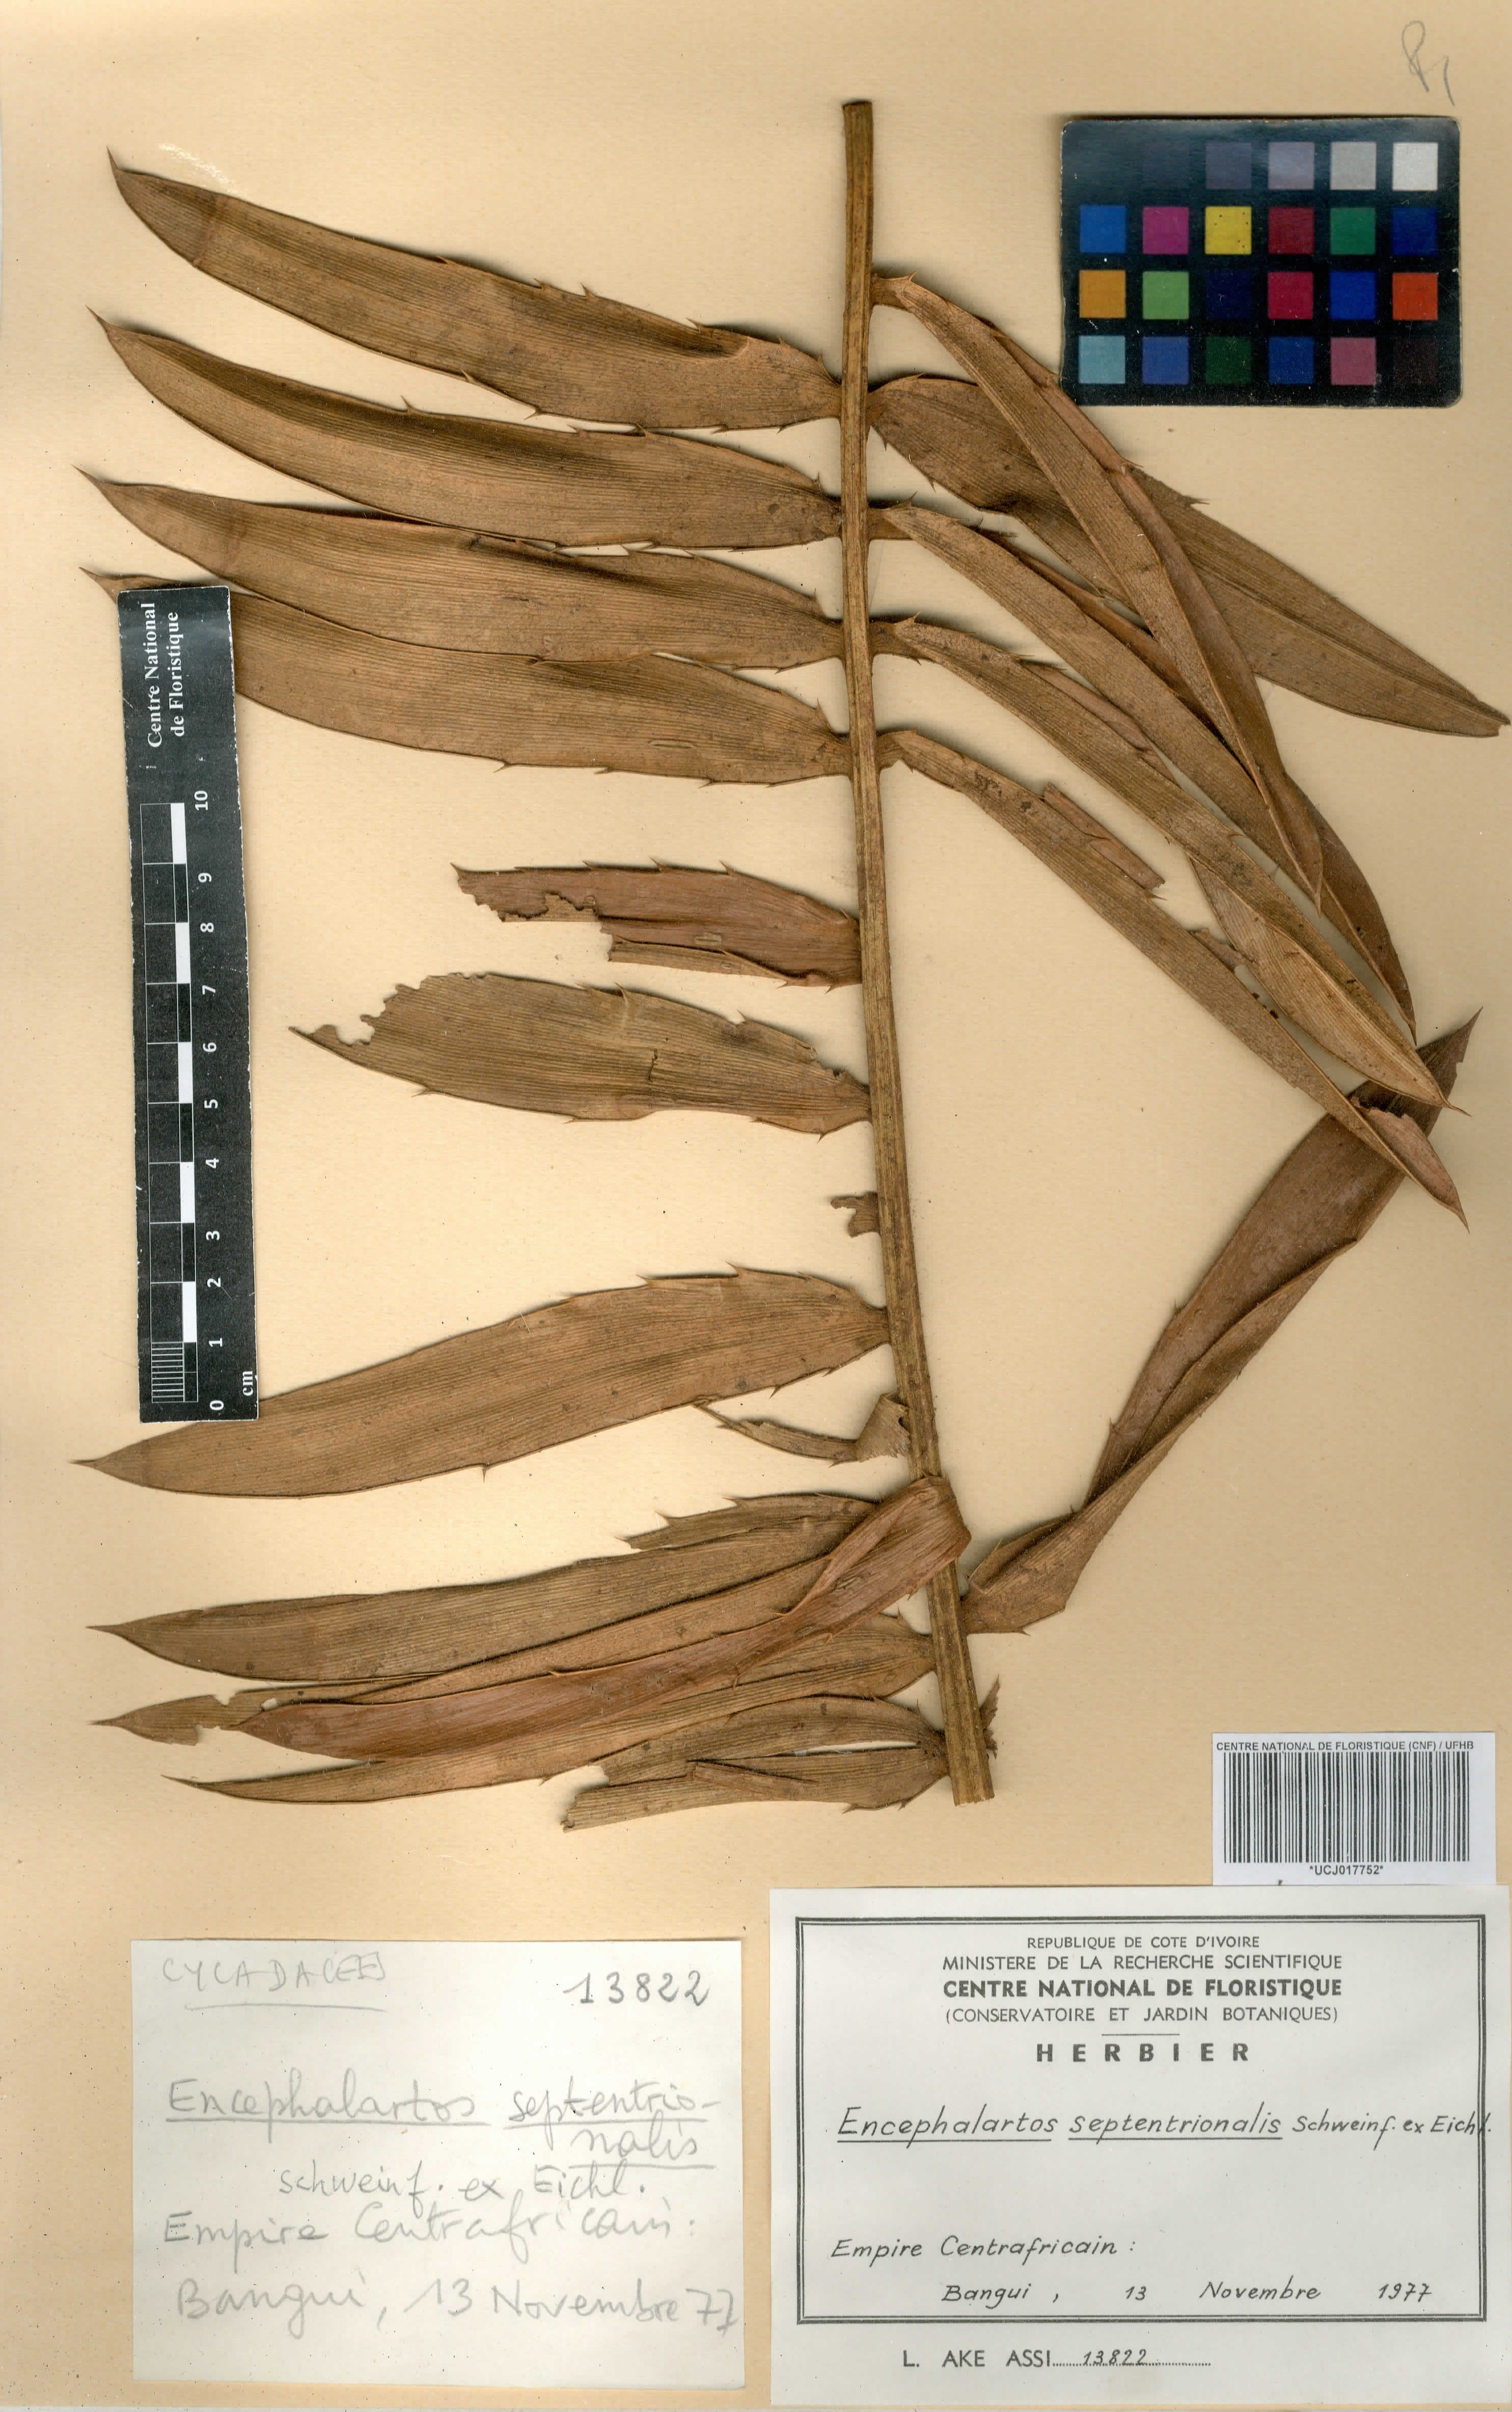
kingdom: Plantae
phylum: Tracheophyta
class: Cycadopsida
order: Cycadales
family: Zamiaceae
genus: Encephalartos
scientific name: Encephalartos septentrionalis
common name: Nile cycad
